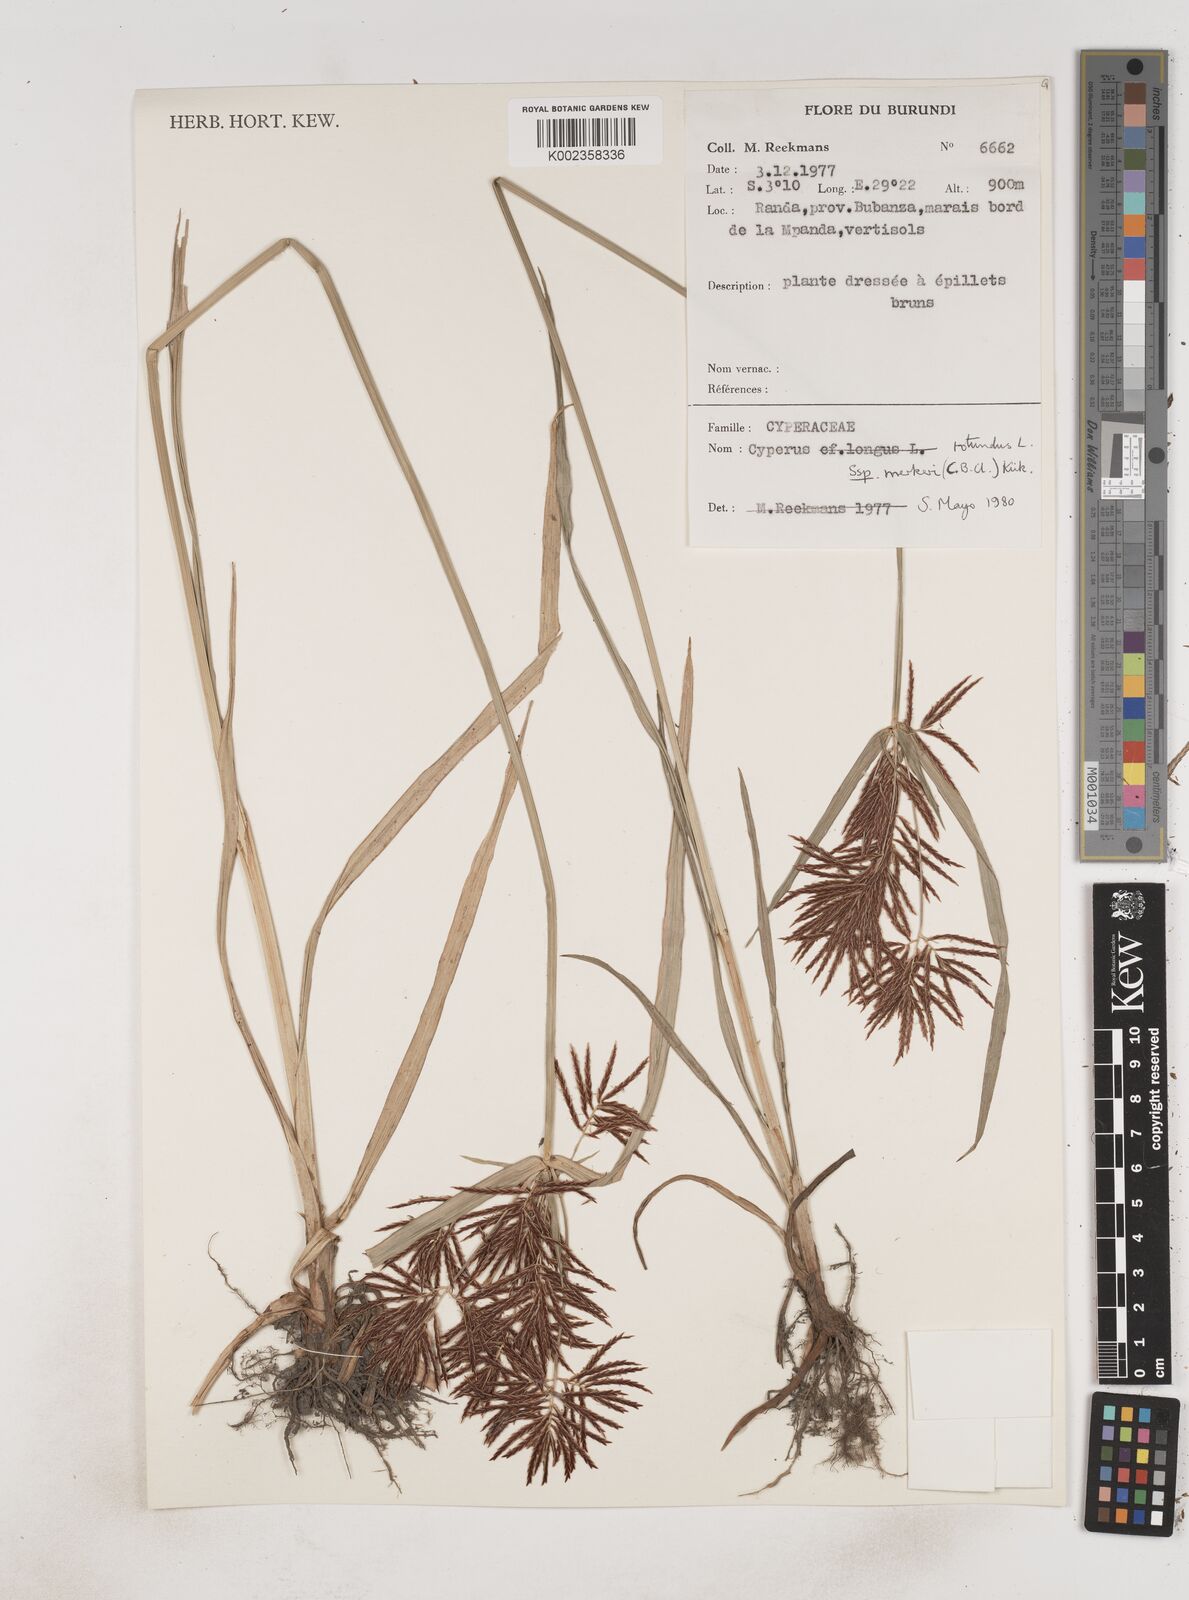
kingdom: Plantae
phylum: Tracheophyta
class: Liliopsida
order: Poales
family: Cyperaceae
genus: Cyperus
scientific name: Cyperus tuberosus
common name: Nut grass
